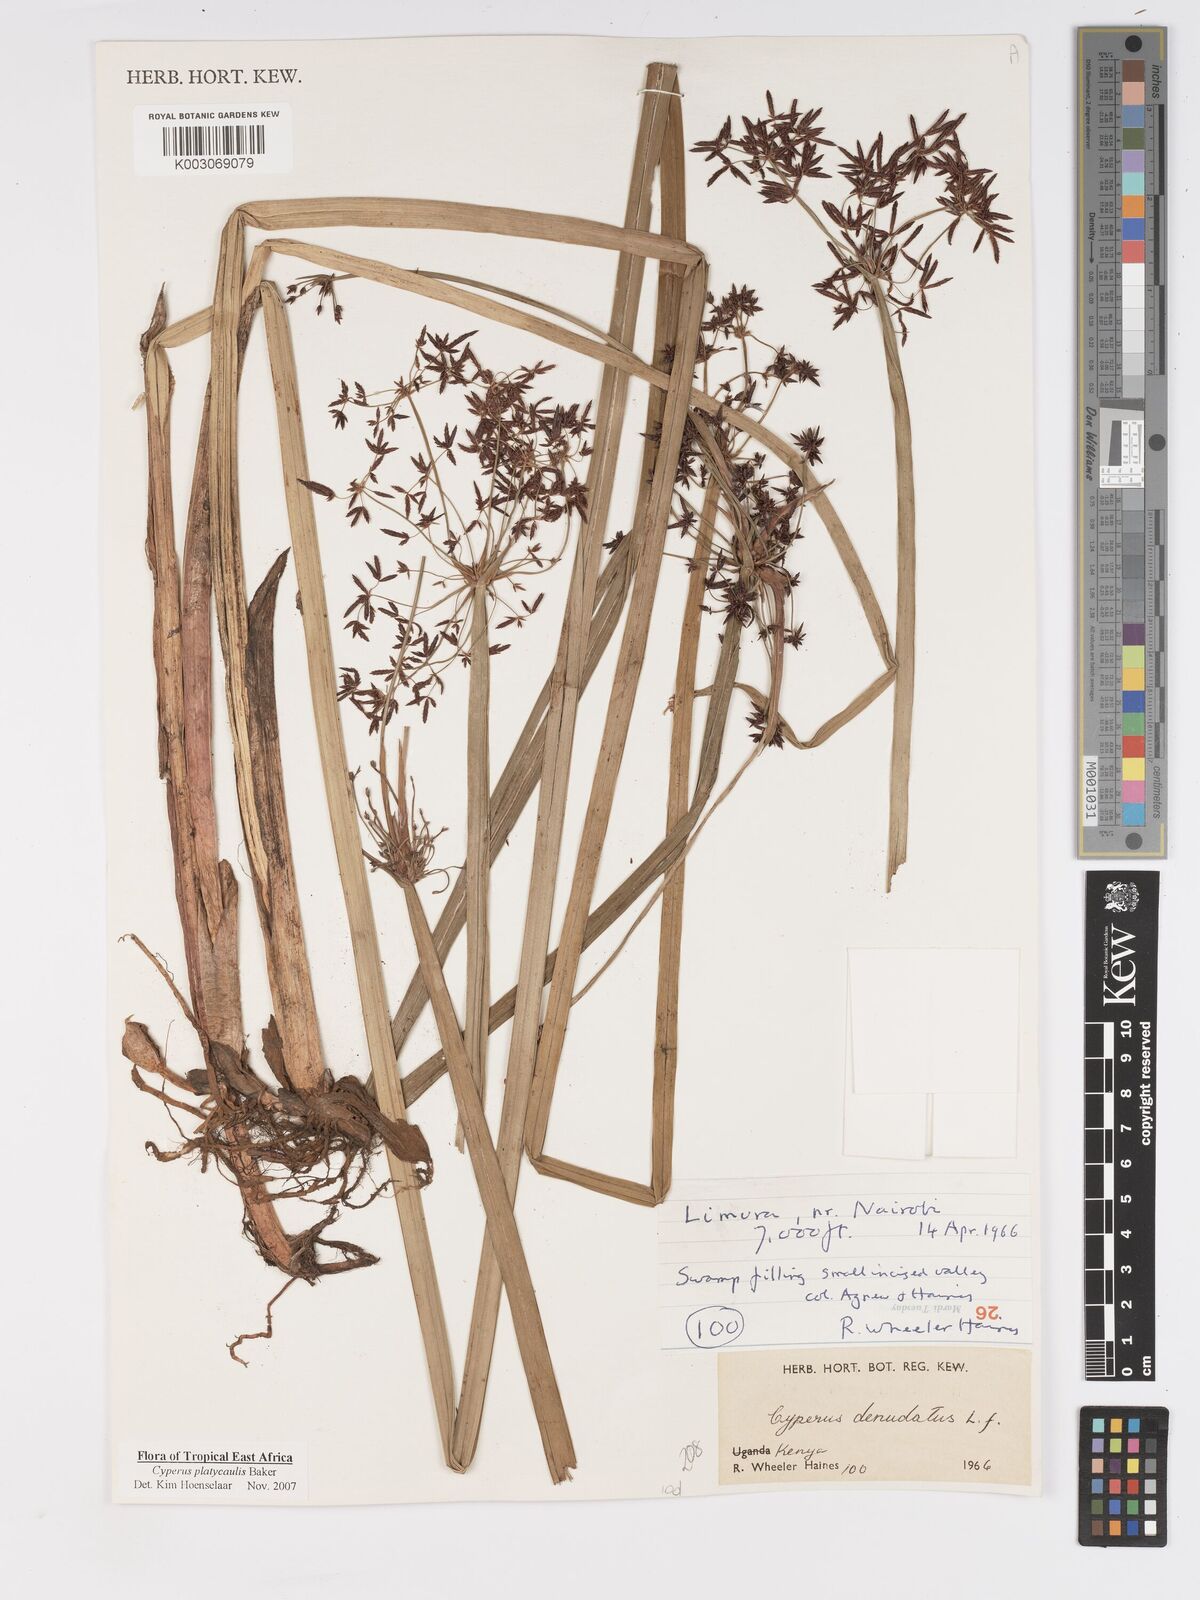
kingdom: Plantae
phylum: Tracheophyta
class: Liliopsida
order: Poales
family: Cyperaceae
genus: Cyperus
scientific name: Cyperus platycaulis
